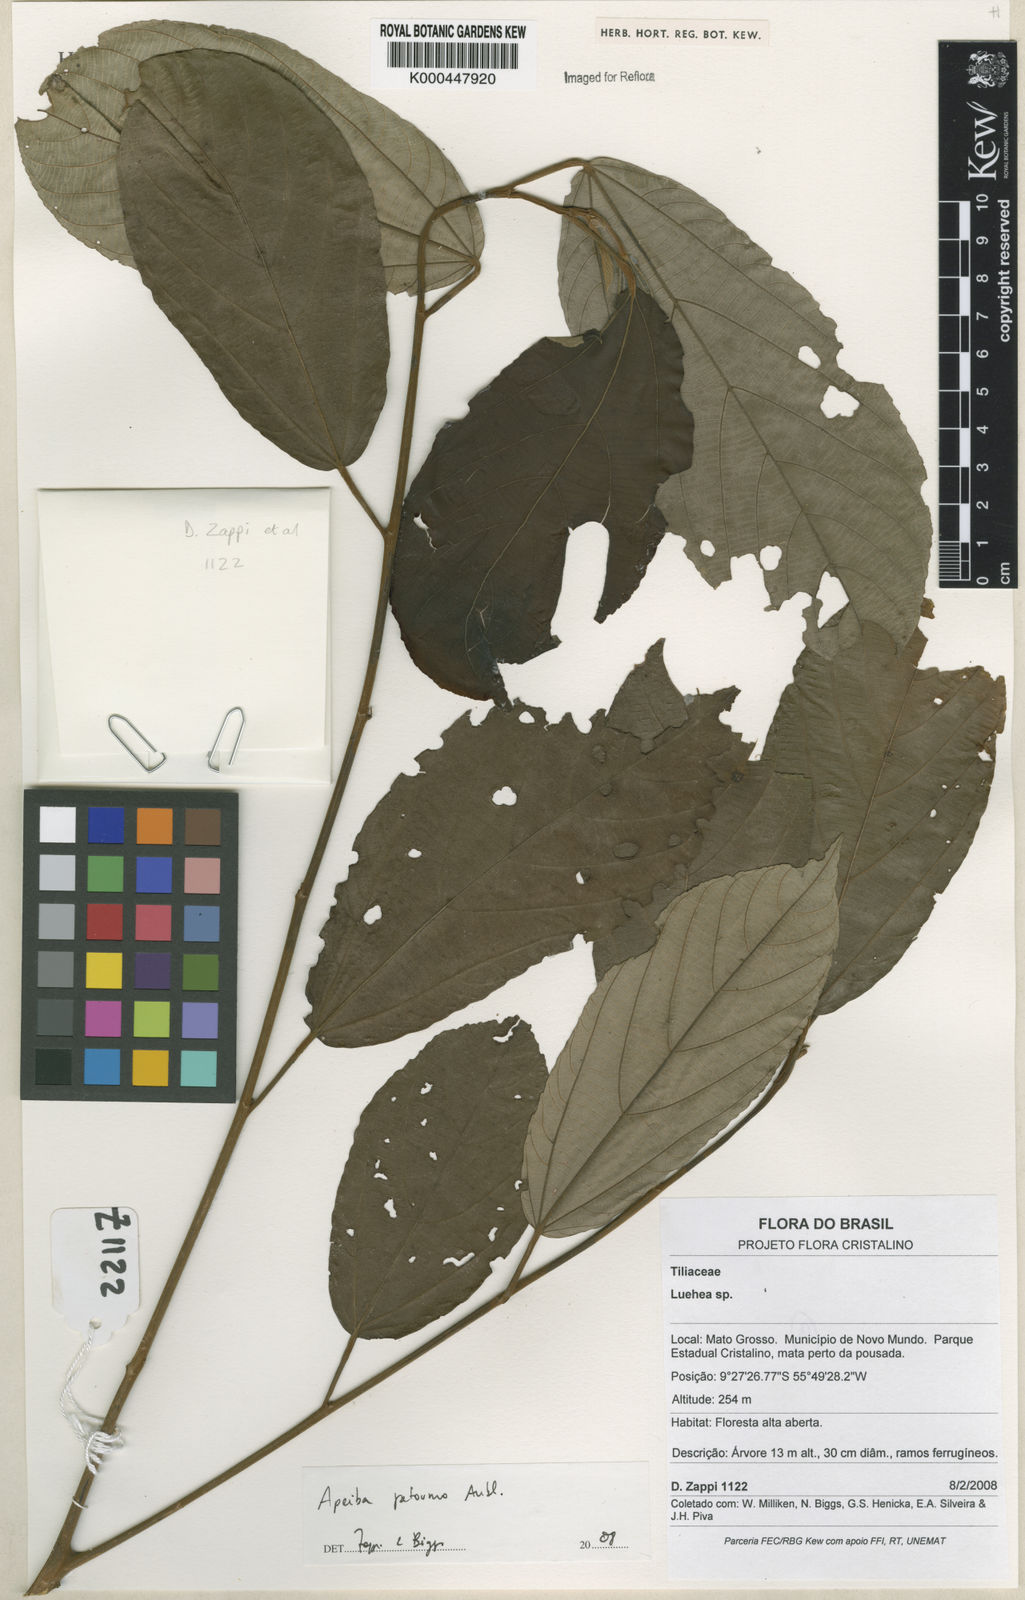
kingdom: Plantae
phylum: Tracheophyta
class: Magnoliopsida
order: Malvales
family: Malvaceae
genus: Apeiba
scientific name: Apeiba petoumo
